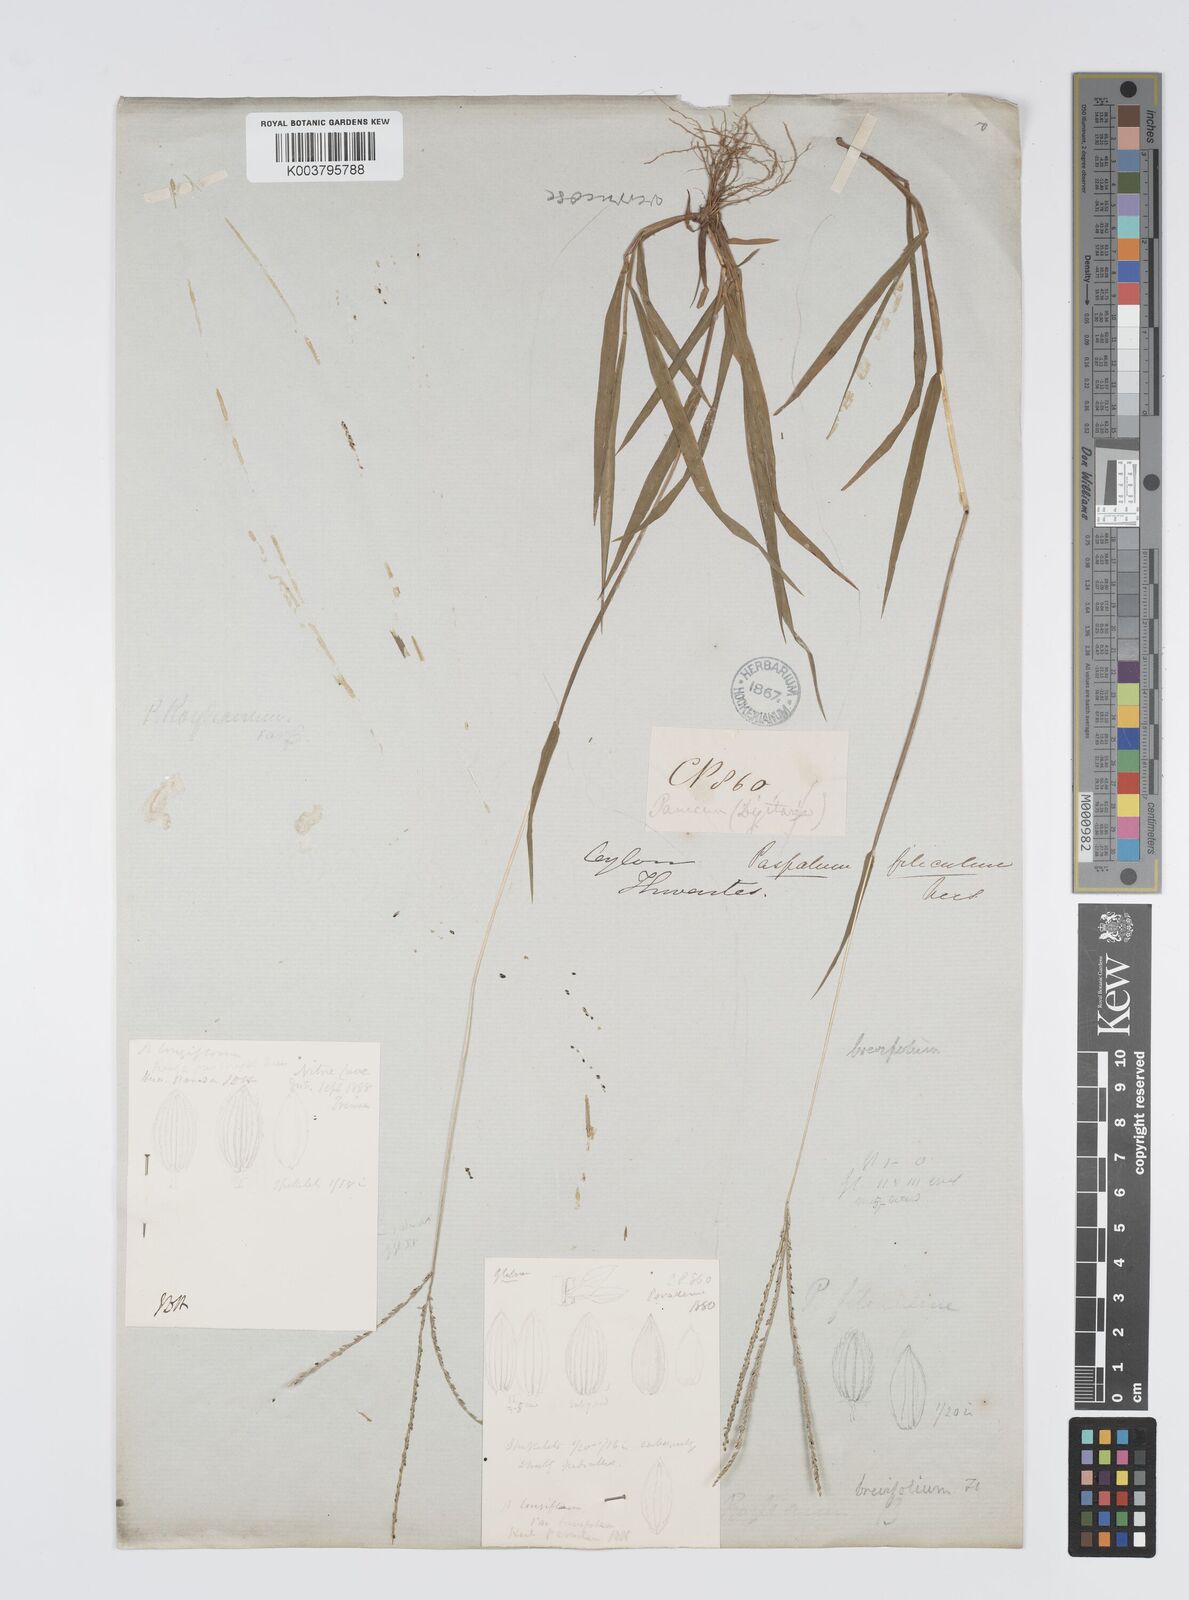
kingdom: Plantae
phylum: Tracheophyta
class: Liliopsida
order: Poales
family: Poaceae
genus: Digitaria
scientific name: Digitaria violascens
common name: Violet crabgrass
